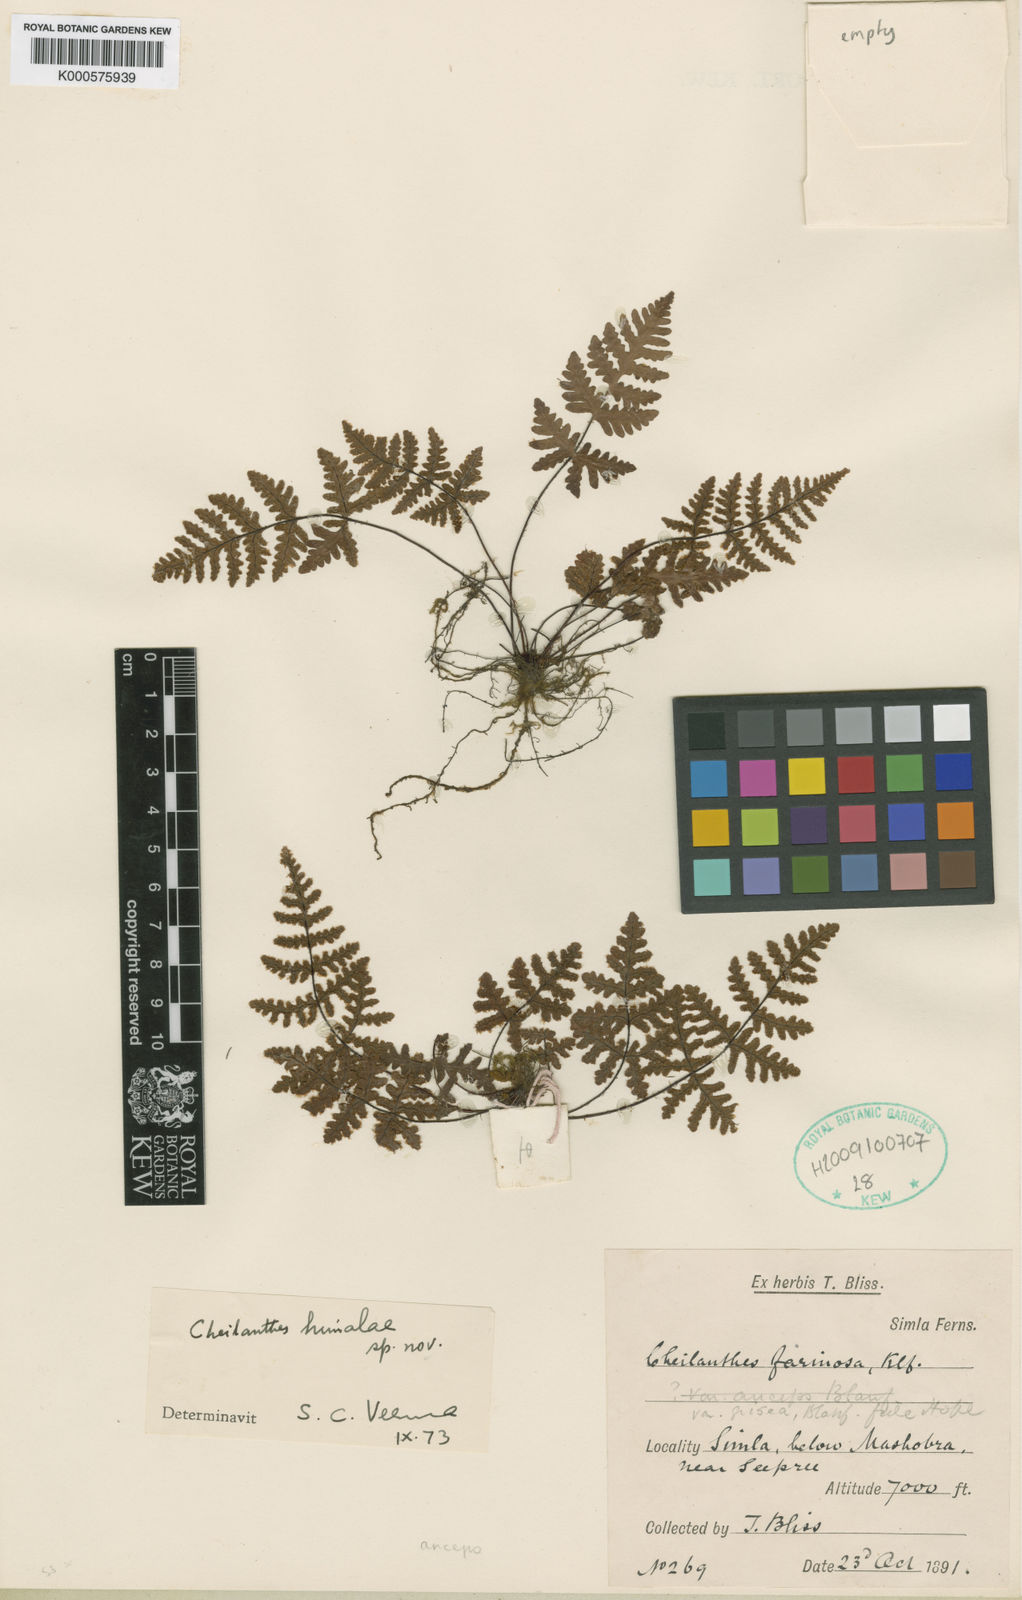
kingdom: Plantae
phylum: Tracheophyta
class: Polypodiopsida
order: Polypodiales
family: Pteridaceae
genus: Cheilanthes
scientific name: Cheilanthes
